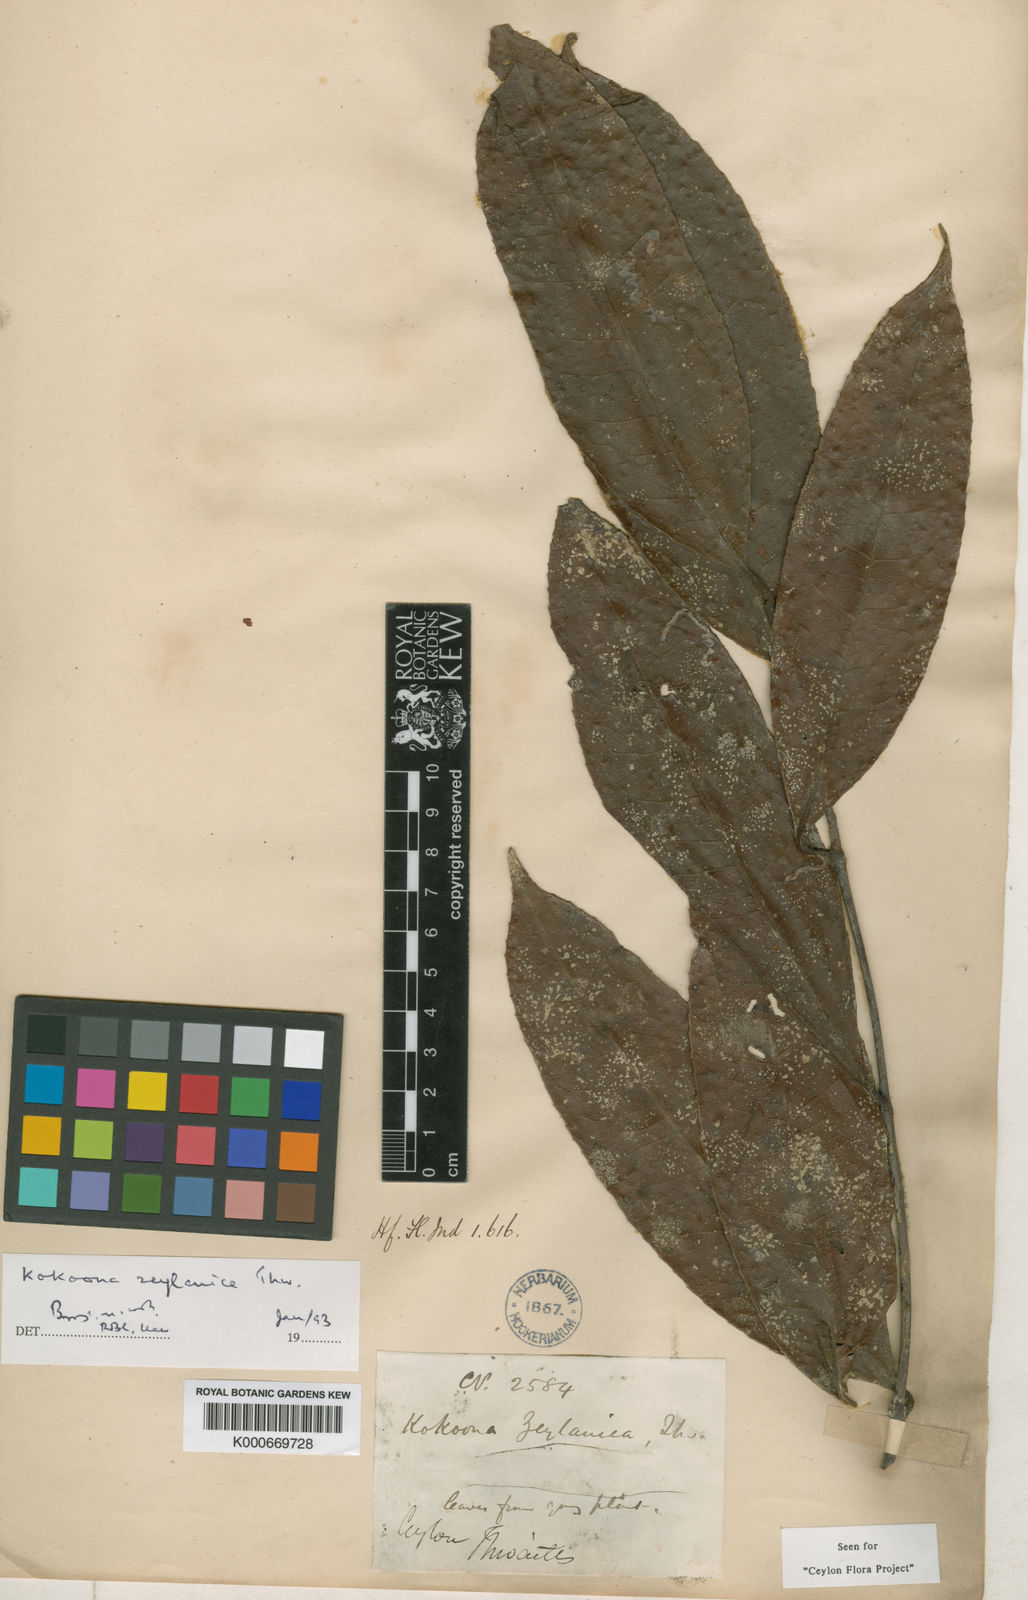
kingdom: Plantae
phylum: Tracheophyta
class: Magnoliopsida
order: Celastrales
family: Celastraceae
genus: Kokoona
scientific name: Kokoona zeylanica
